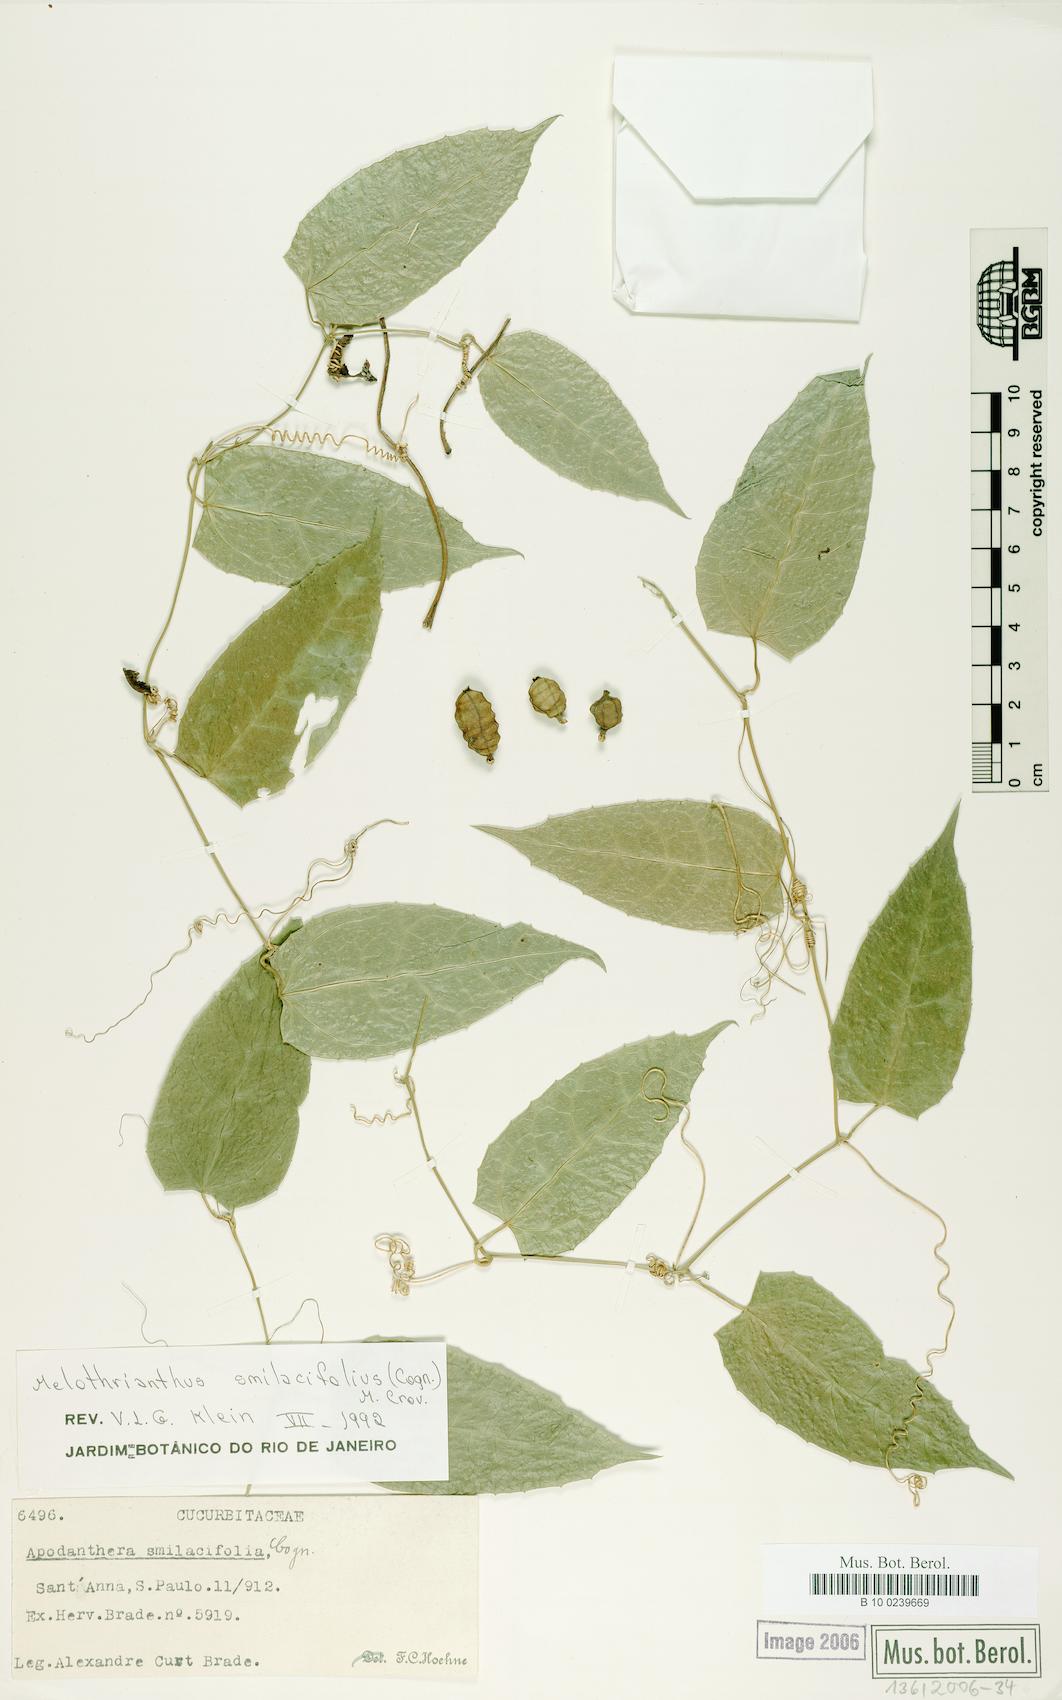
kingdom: Plantae
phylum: Tracheophyta
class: Magnoliopsida
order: Cucurbitales
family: Cucurbitaceae
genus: Apodanthera
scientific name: Apodanthera smilacifolia
